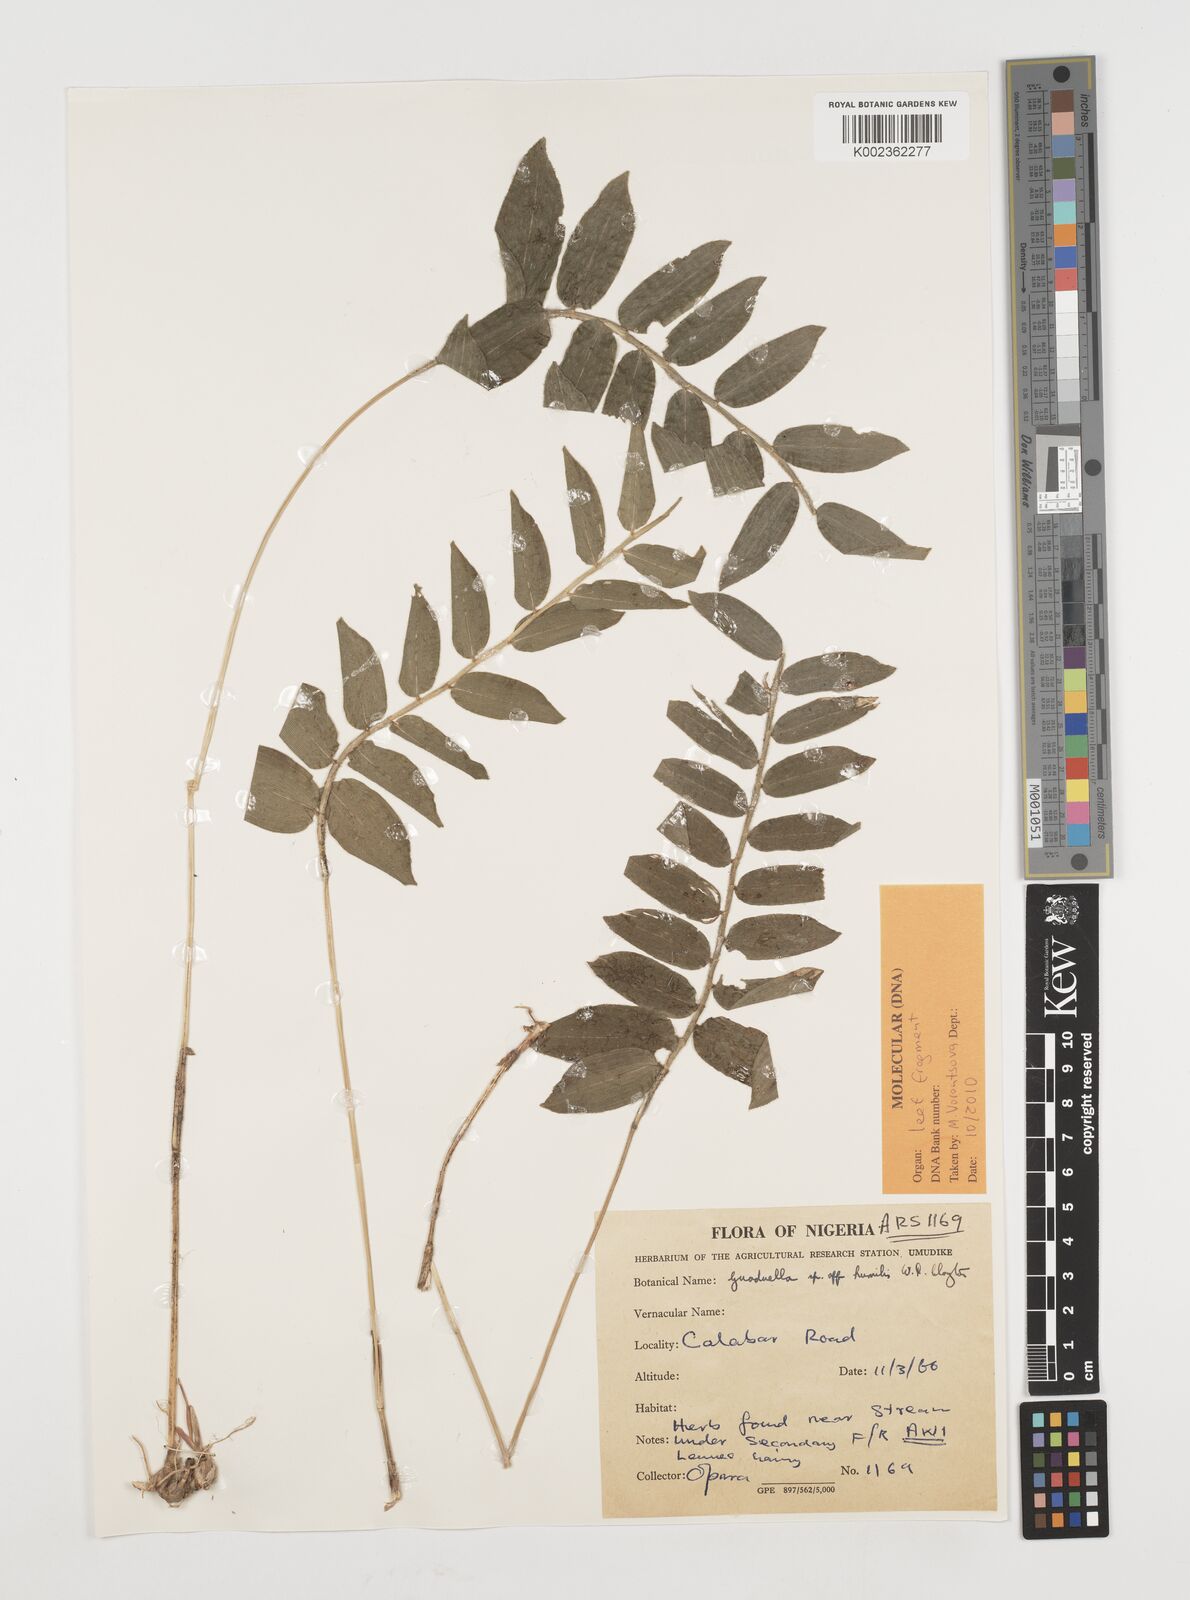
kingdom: Plantae
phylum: Tracheophyta
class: Liliopsida
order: Poales
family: Poaceae
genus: Guaduella
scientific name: Guaduella
